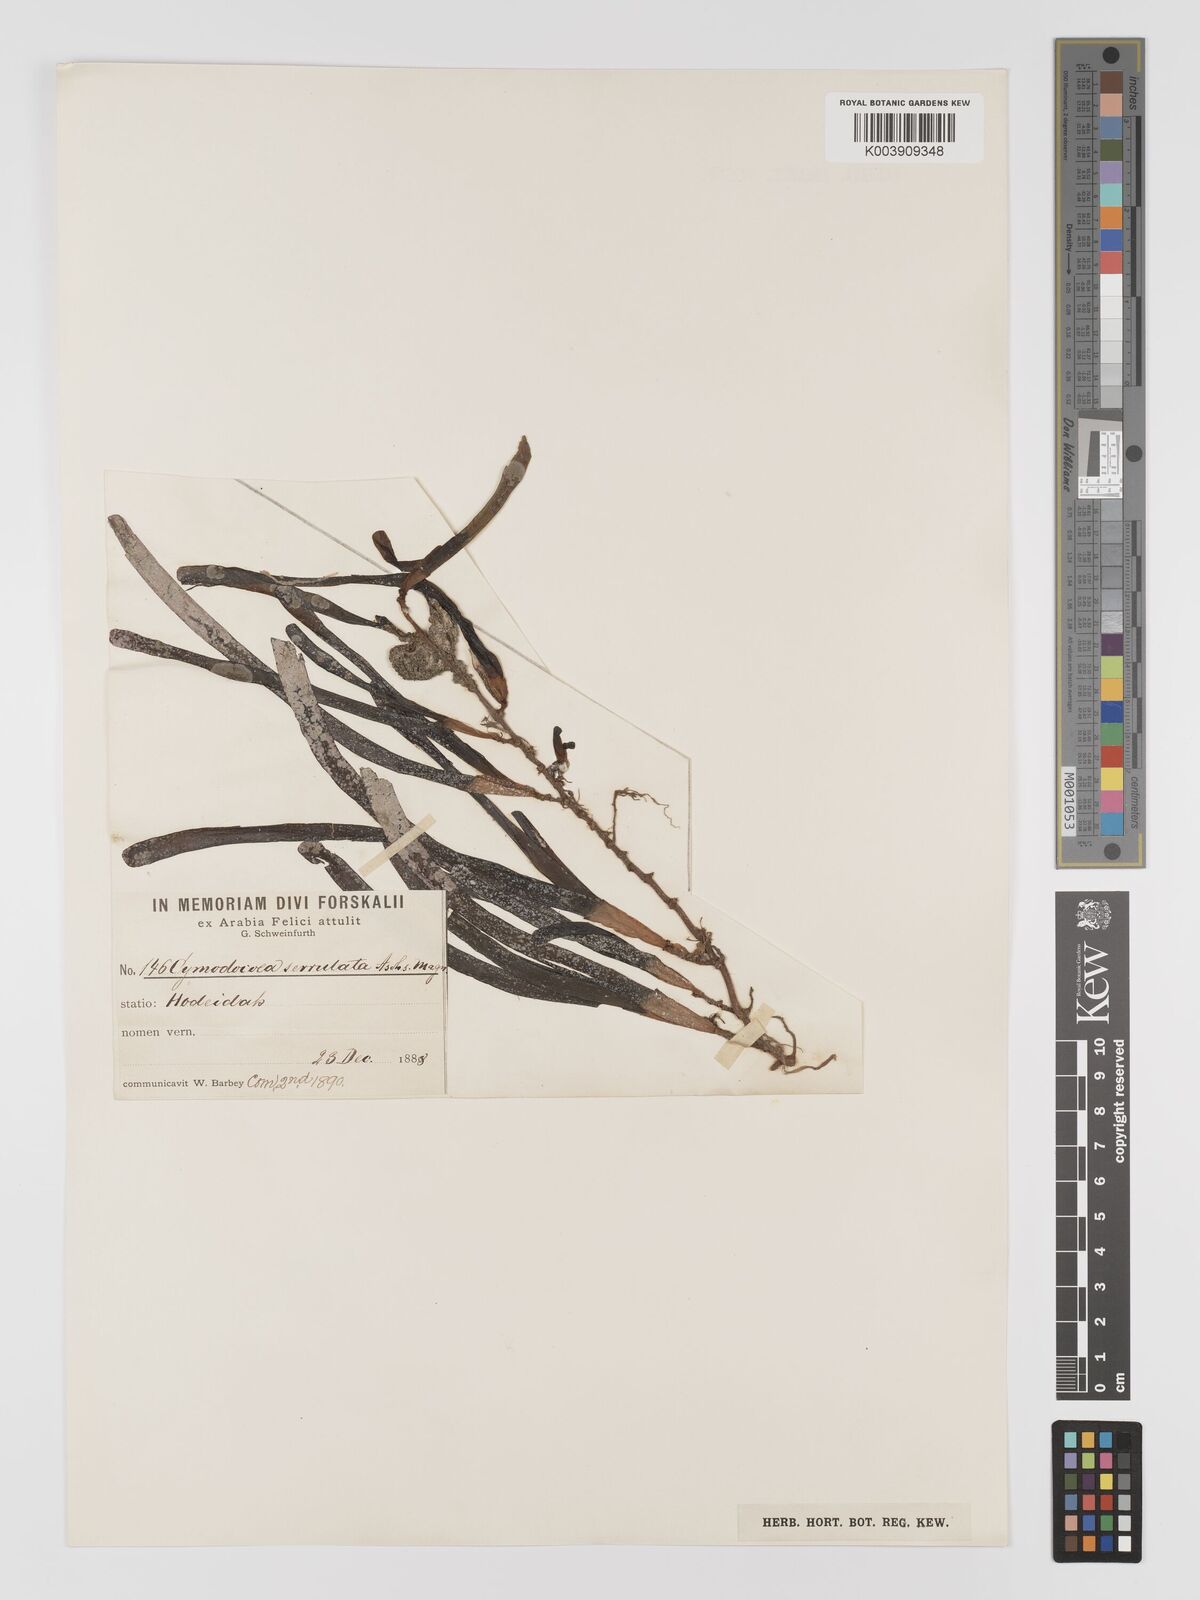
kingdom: Plantae
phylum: Tracheophyta
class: Liliopsida
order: Alismatales
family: Cymodoceaceae
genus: Oceana
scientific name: Oceana serrulata
